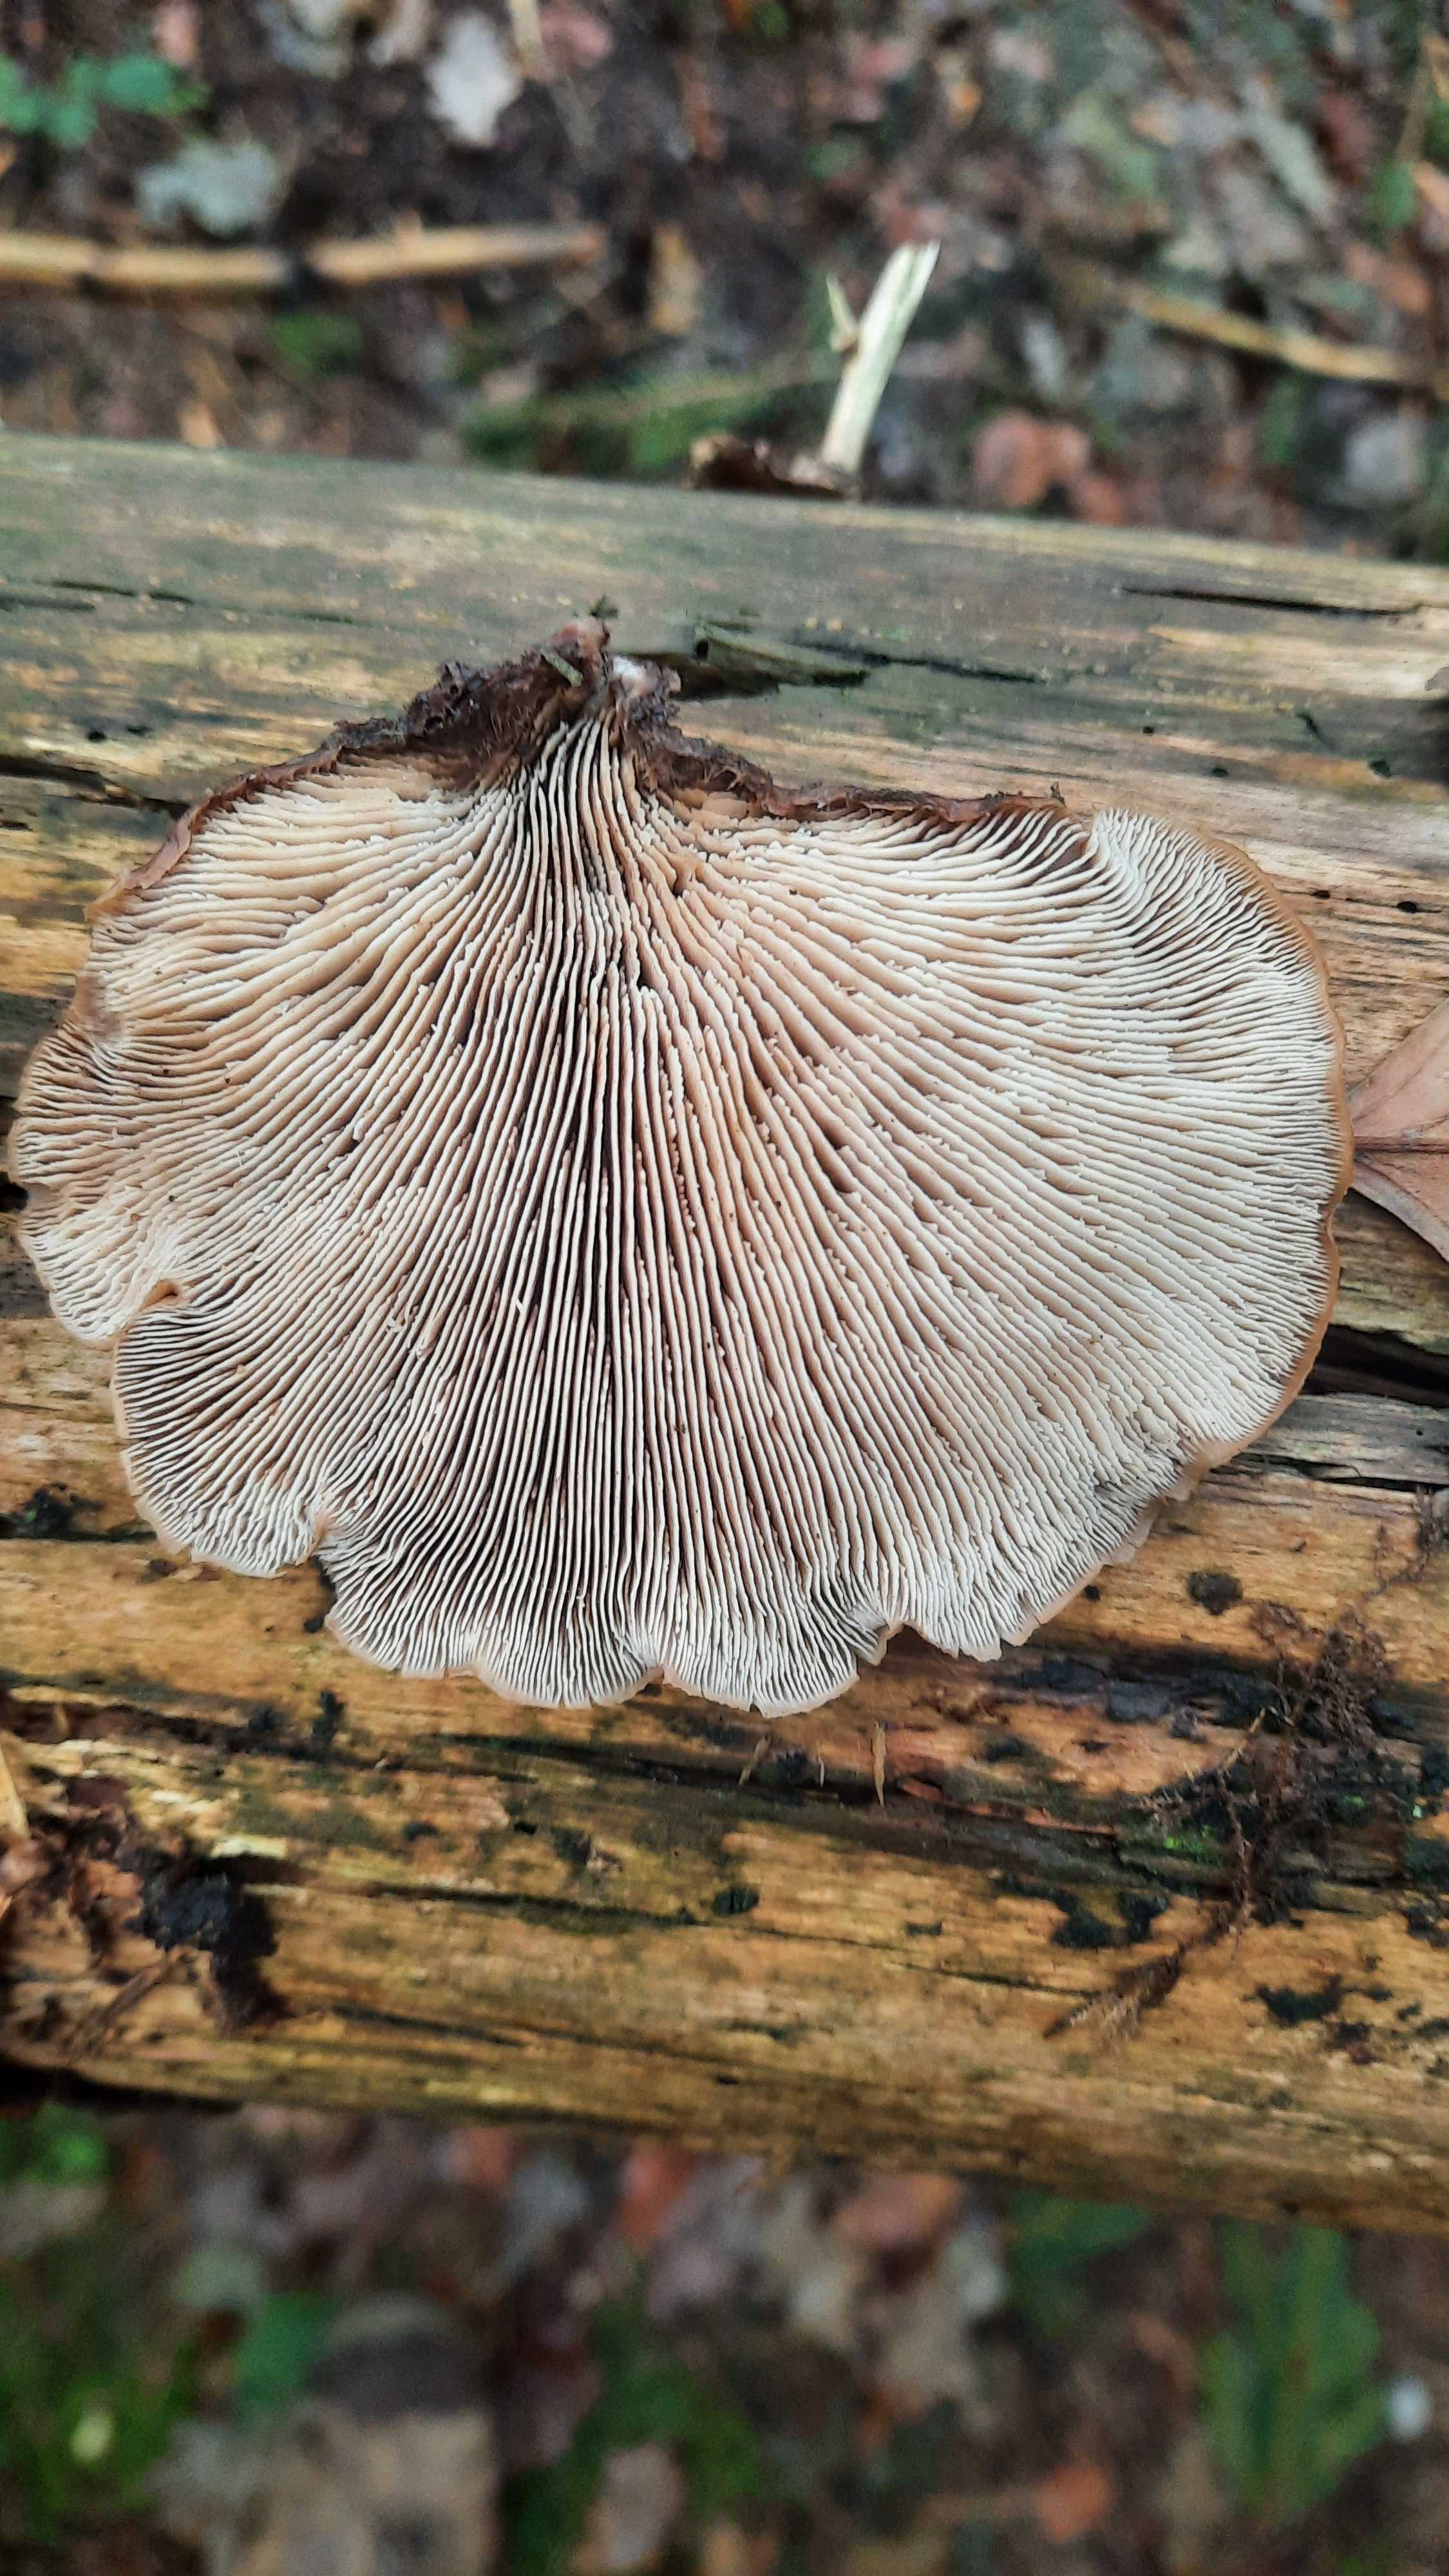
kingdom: Fungi
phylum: Basidiomycota
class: Agaricomycetes
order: Russulales
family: Auriscalpiaceae
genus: Lentinellus
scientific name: Lentinellus ursinus
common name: børstehåret savbladhat
